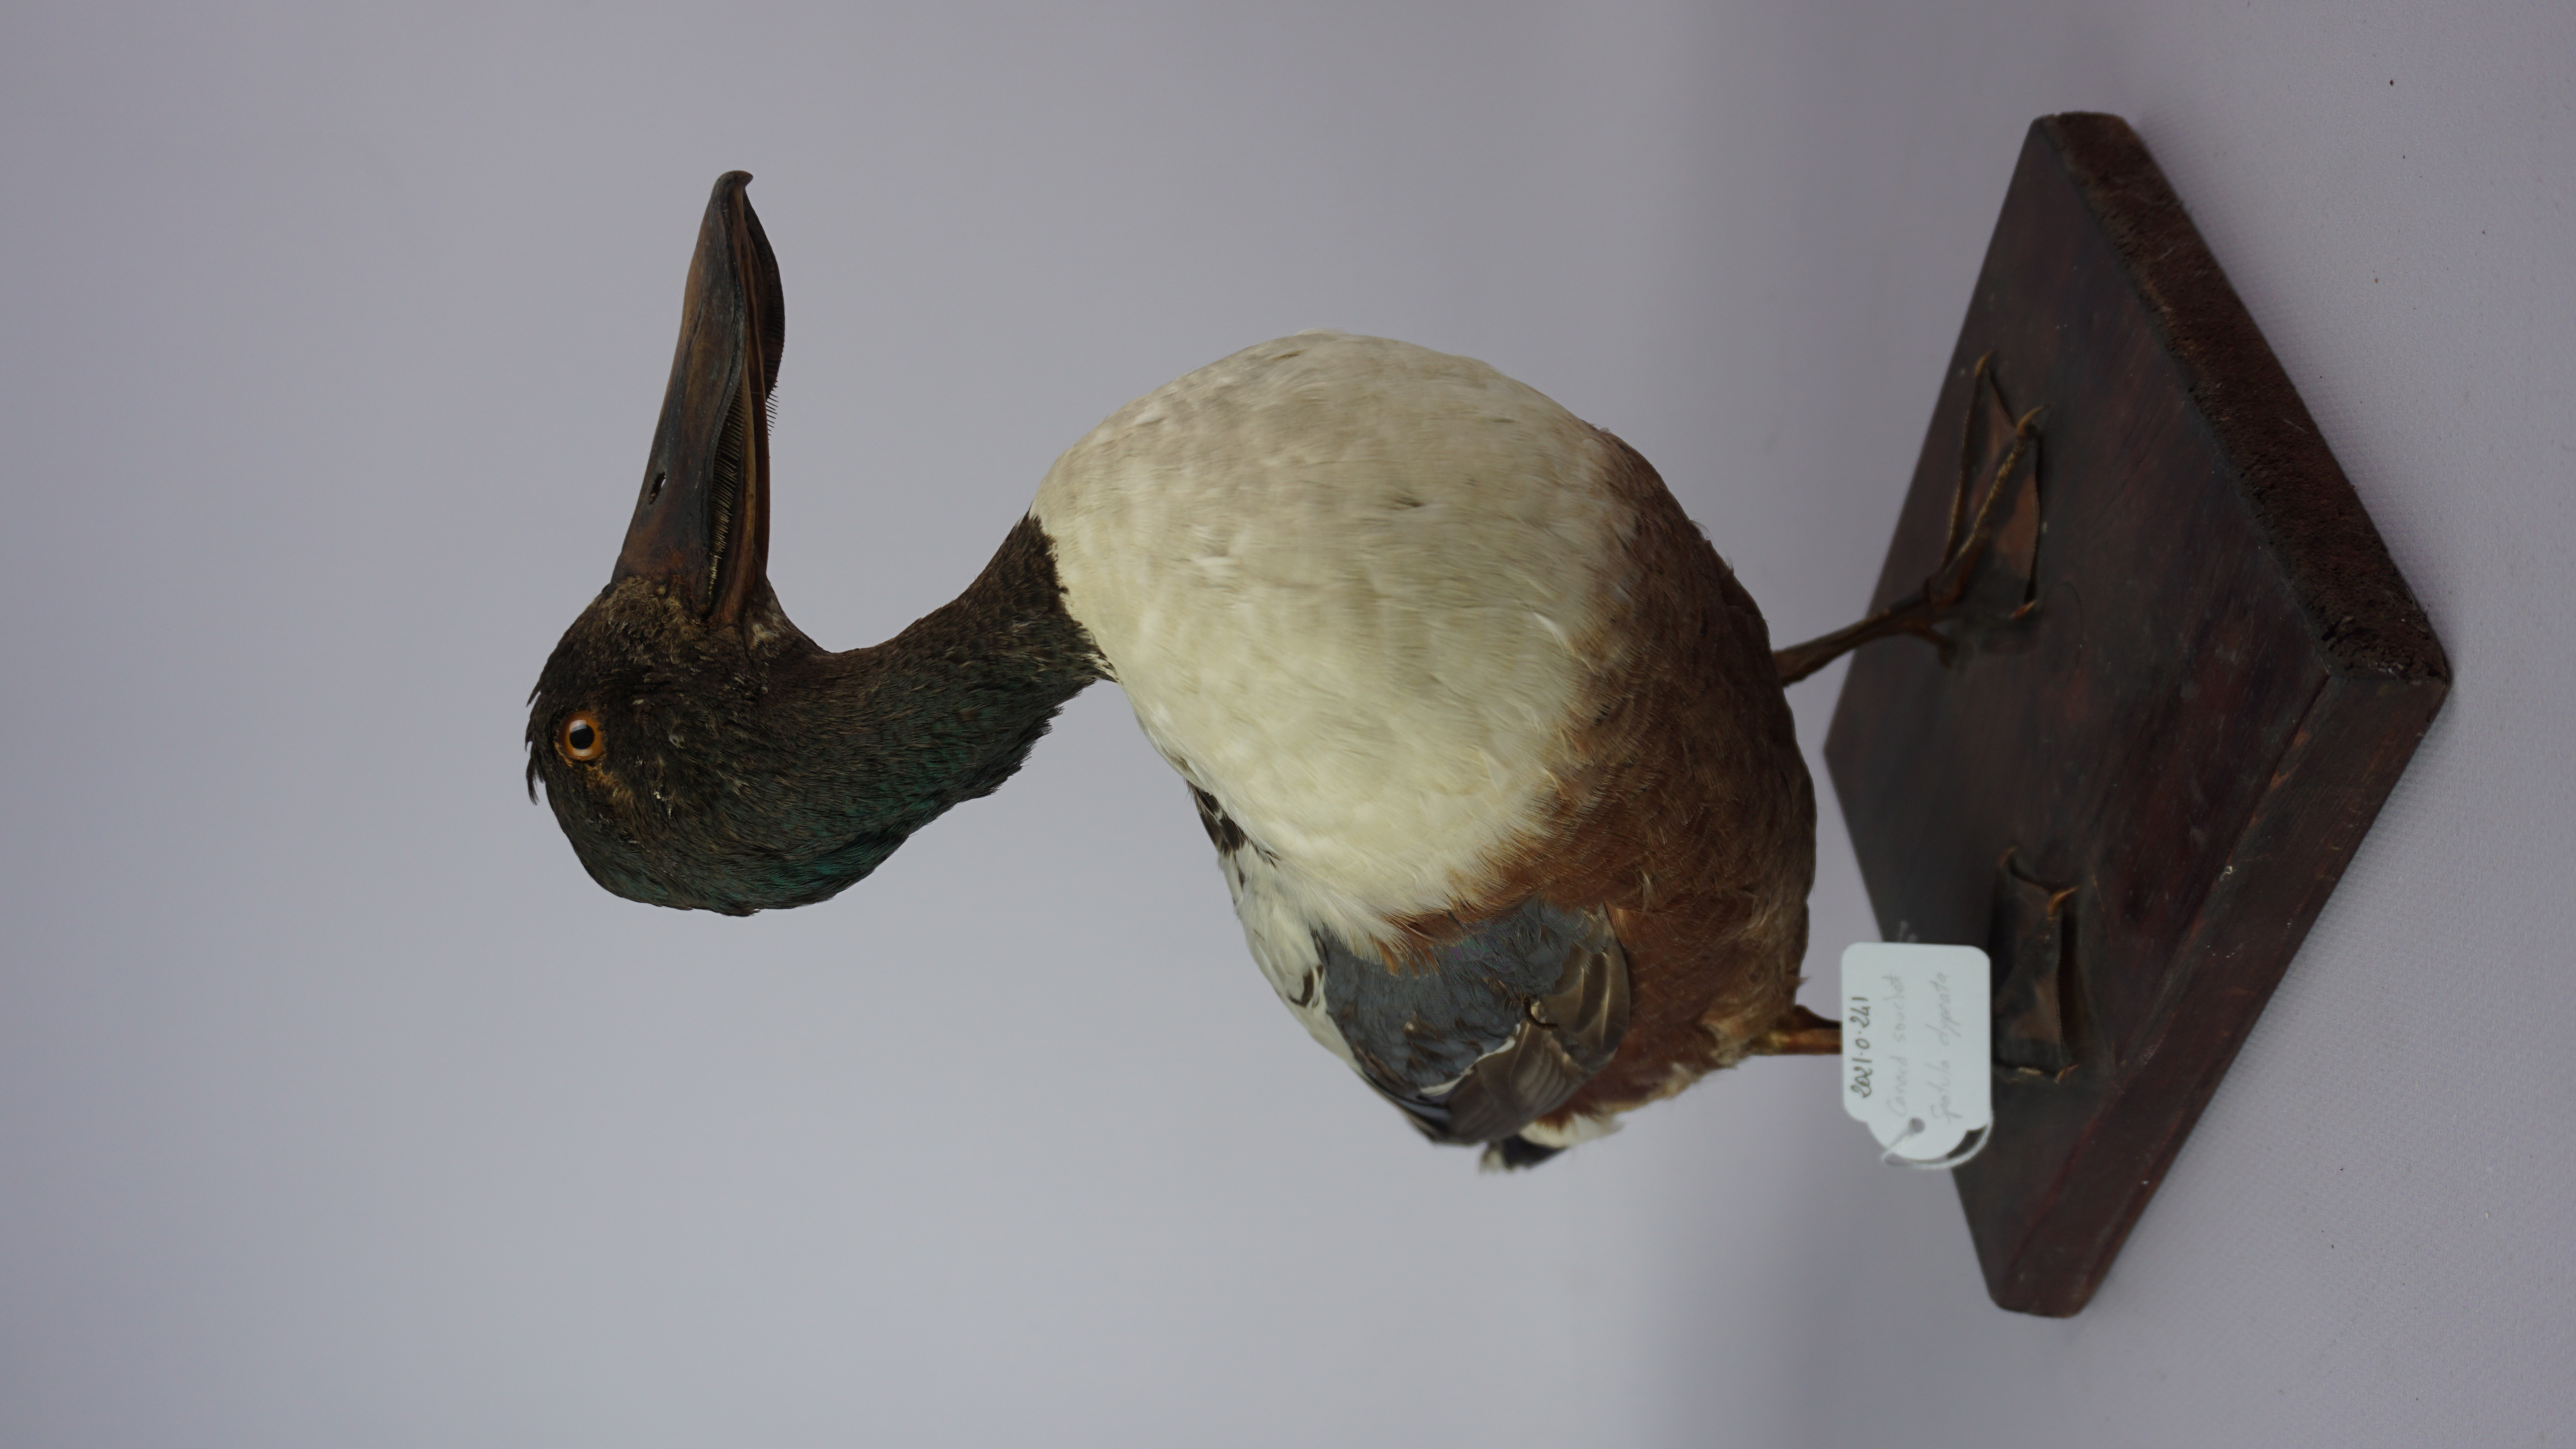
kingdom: Animalia
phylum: Chordata
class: Aves
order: Anseriformes
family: Anatidae
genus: Spatula
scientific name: Spatula clypeata
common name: Northern shoveler
